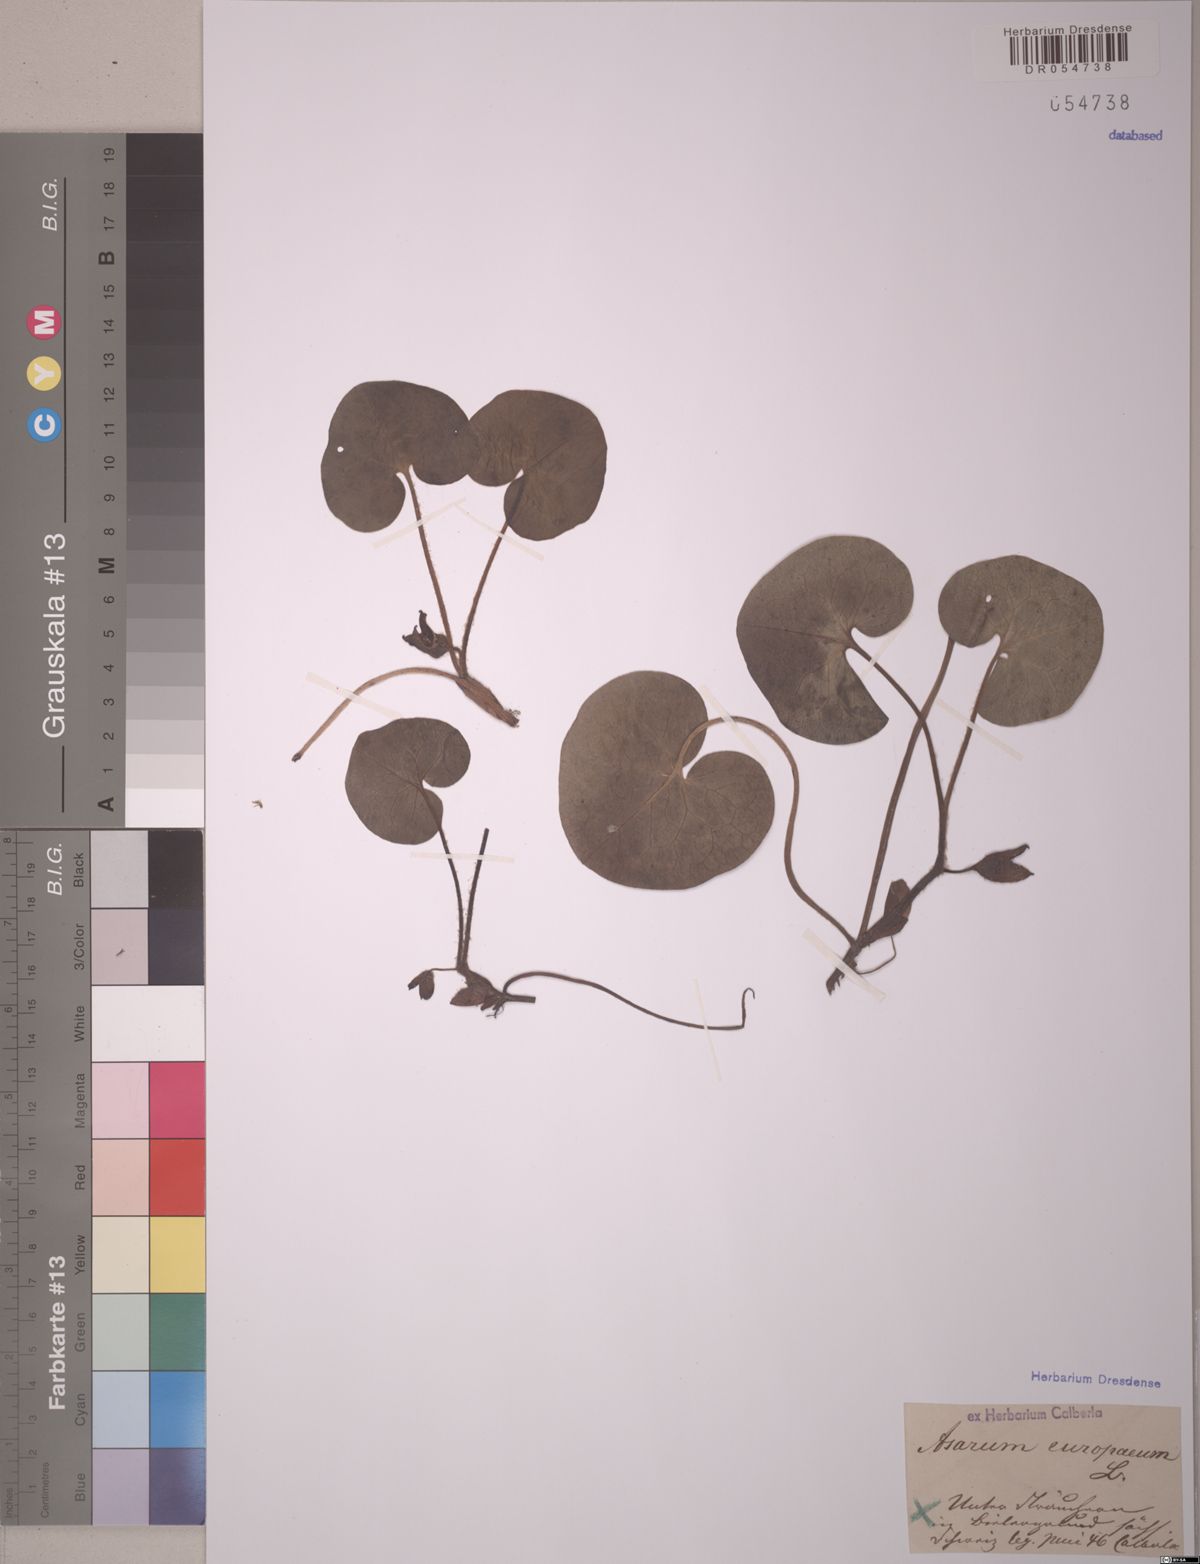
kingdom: Plantae
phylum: Tracheophyta
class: Magnoliopsida
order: Piperales
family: Aristolochiaceae
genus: Asarum
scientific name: Asarum europaeum
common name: Asarabacca
